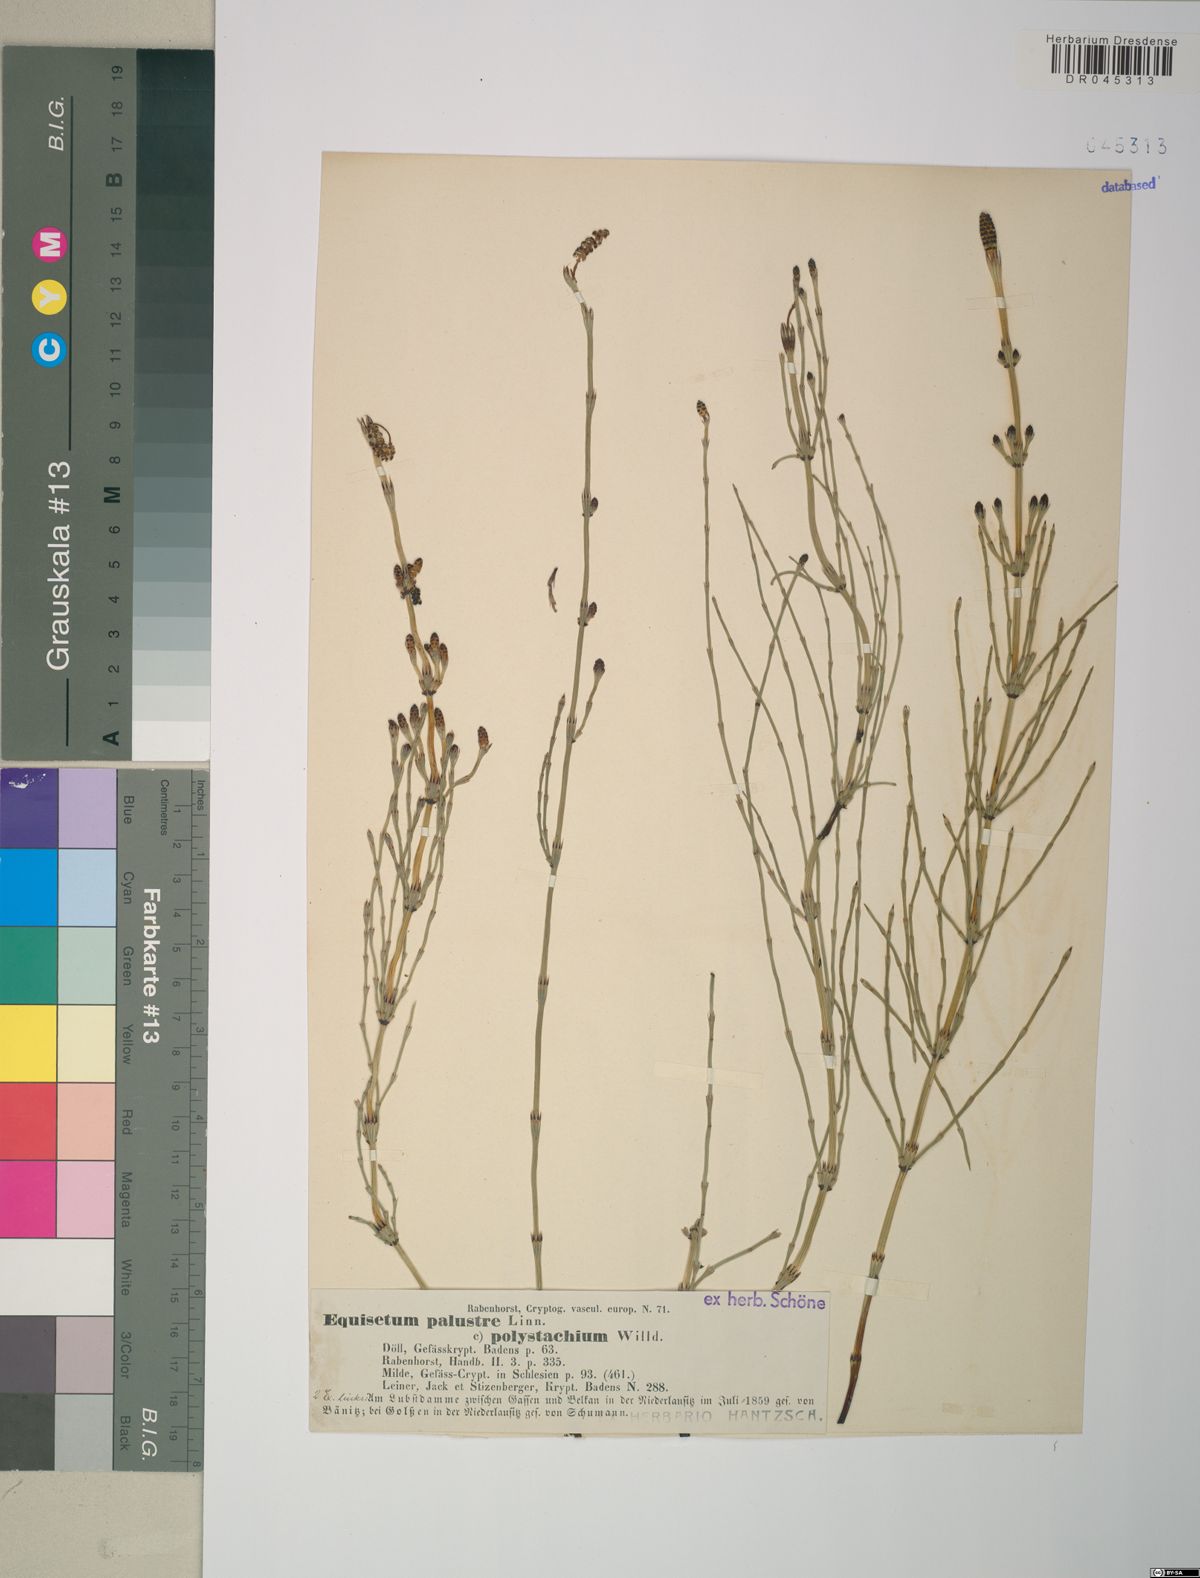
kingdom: Plantae
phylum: Tracheophyta
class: Polypodiopsida
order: Equisetales
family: Equisetaceae
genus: Equisetum
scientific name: Equisetum palustre
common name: Marsh horsetail
